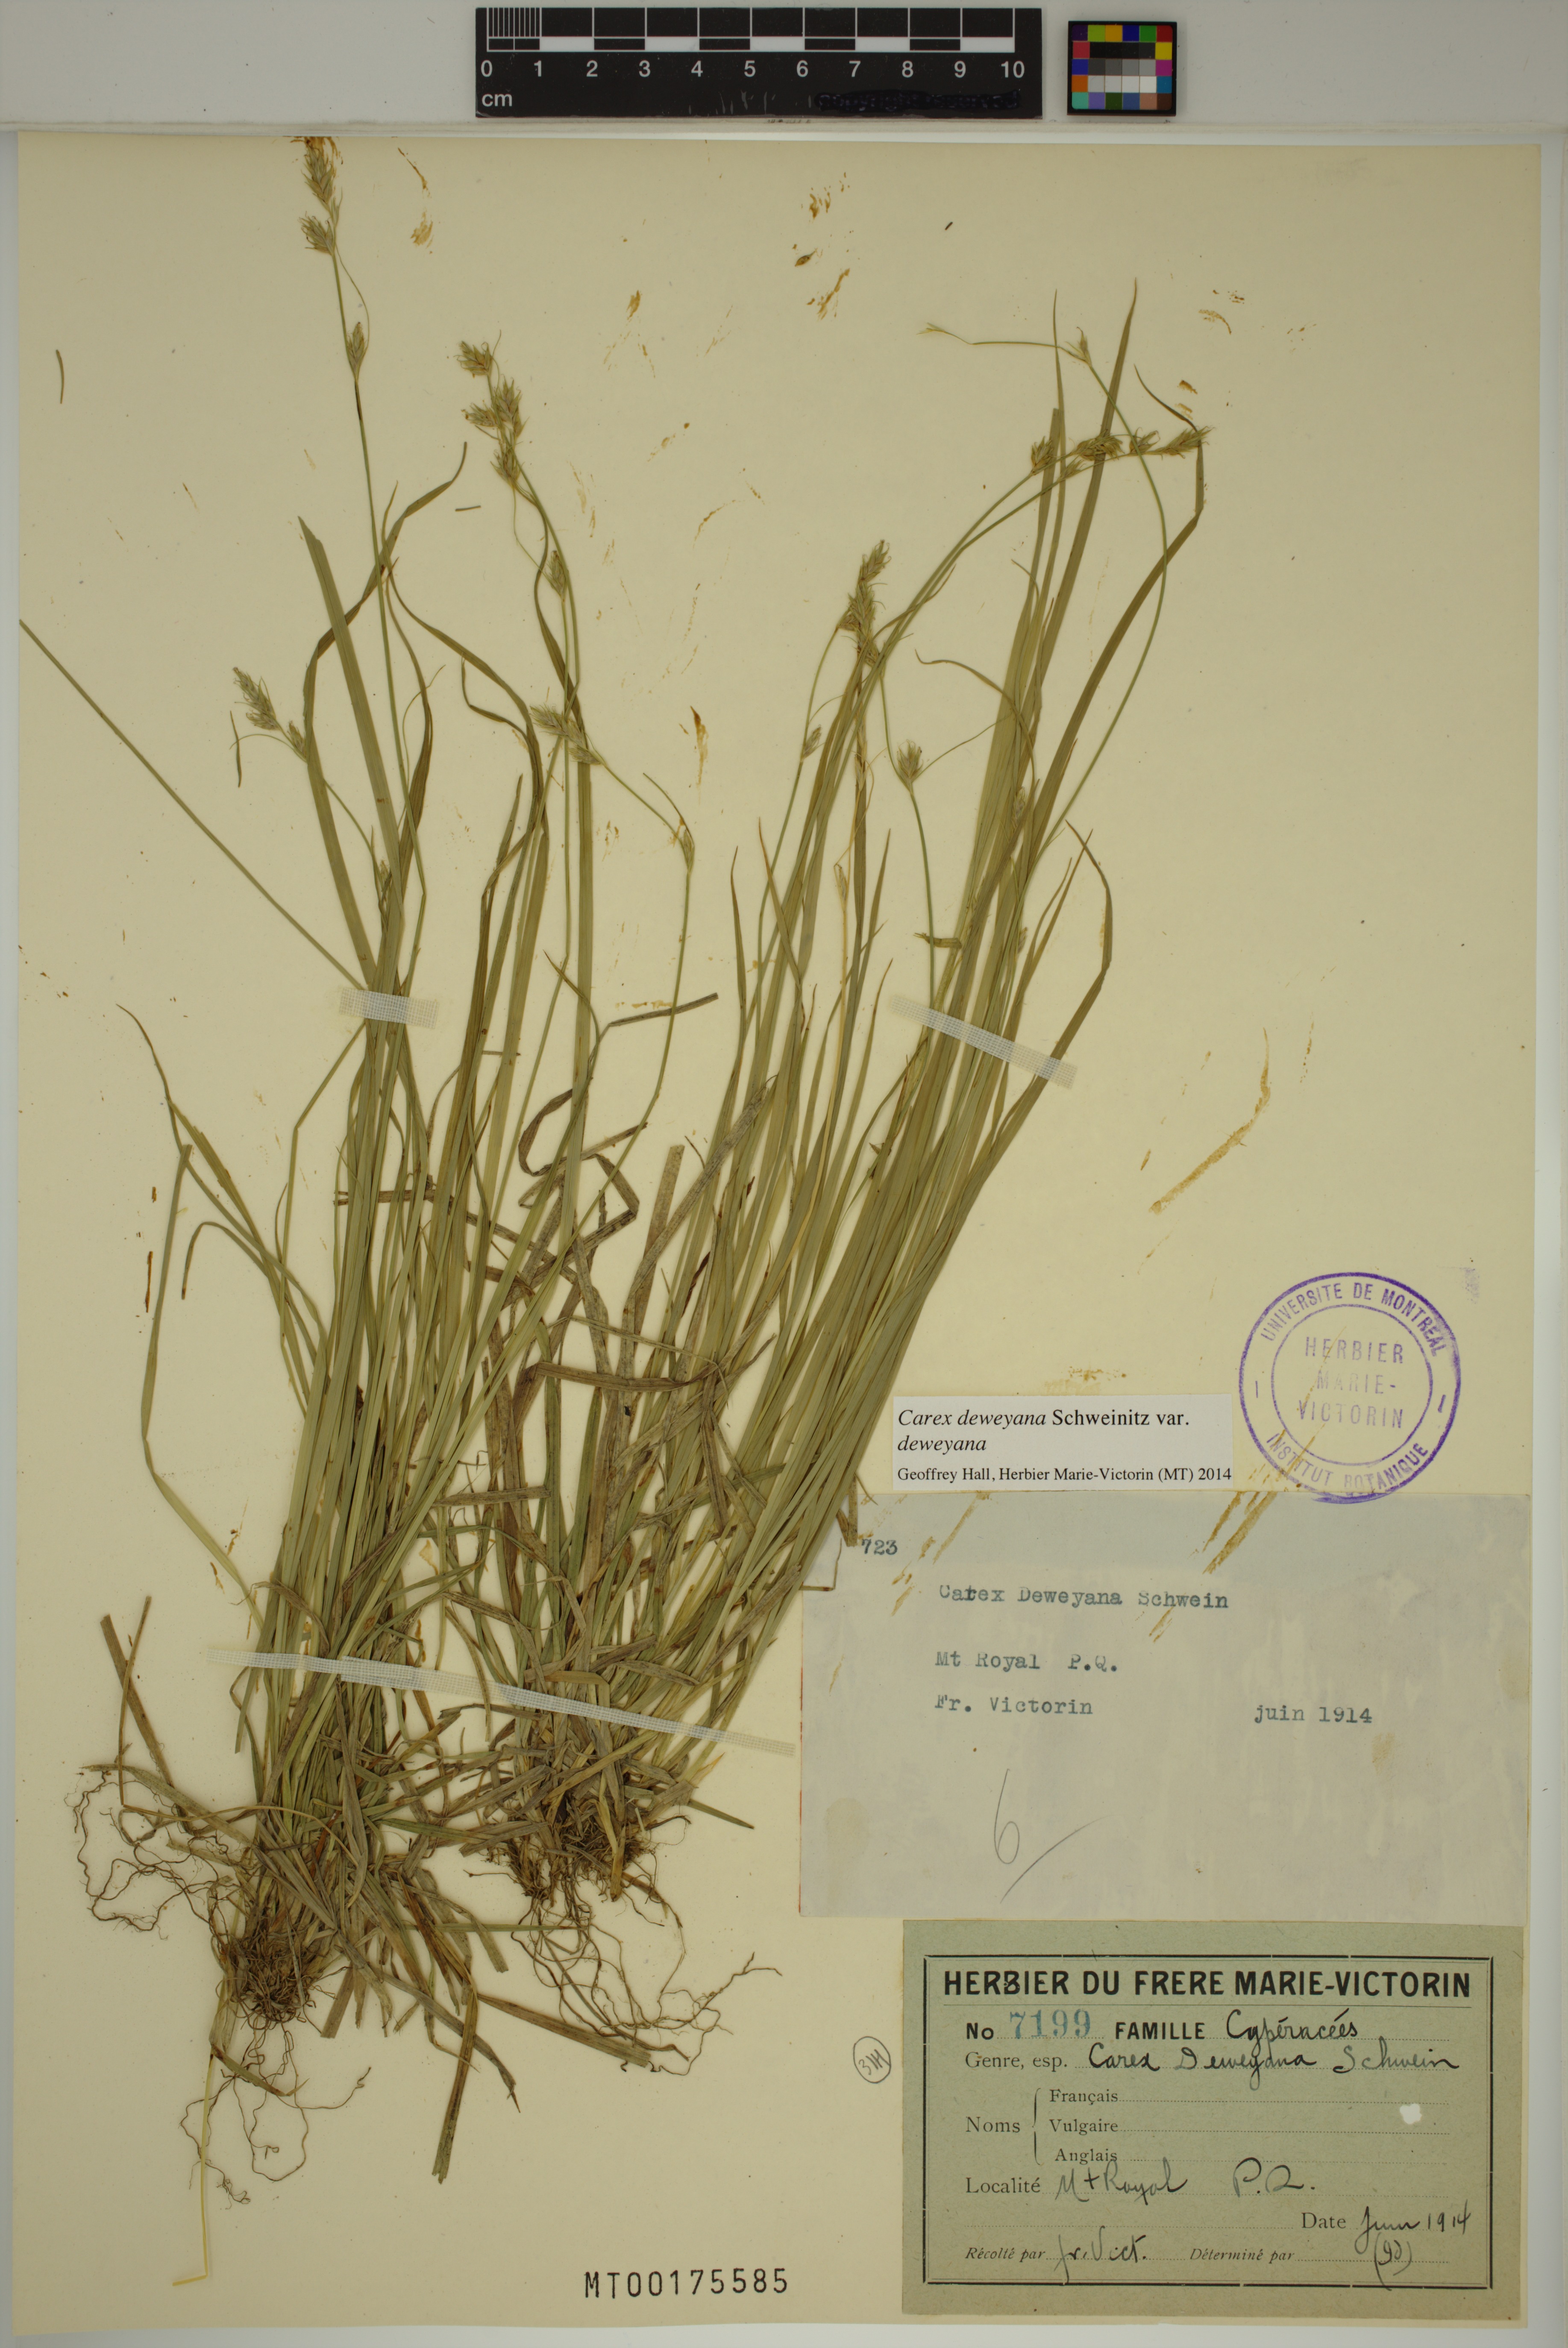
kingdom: Plantae
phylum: Tracheophyta
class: Liliopsida
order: Poales
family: Cyperaceae
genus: Carex
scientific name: Carex deweyana
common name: Dewey's sedge
